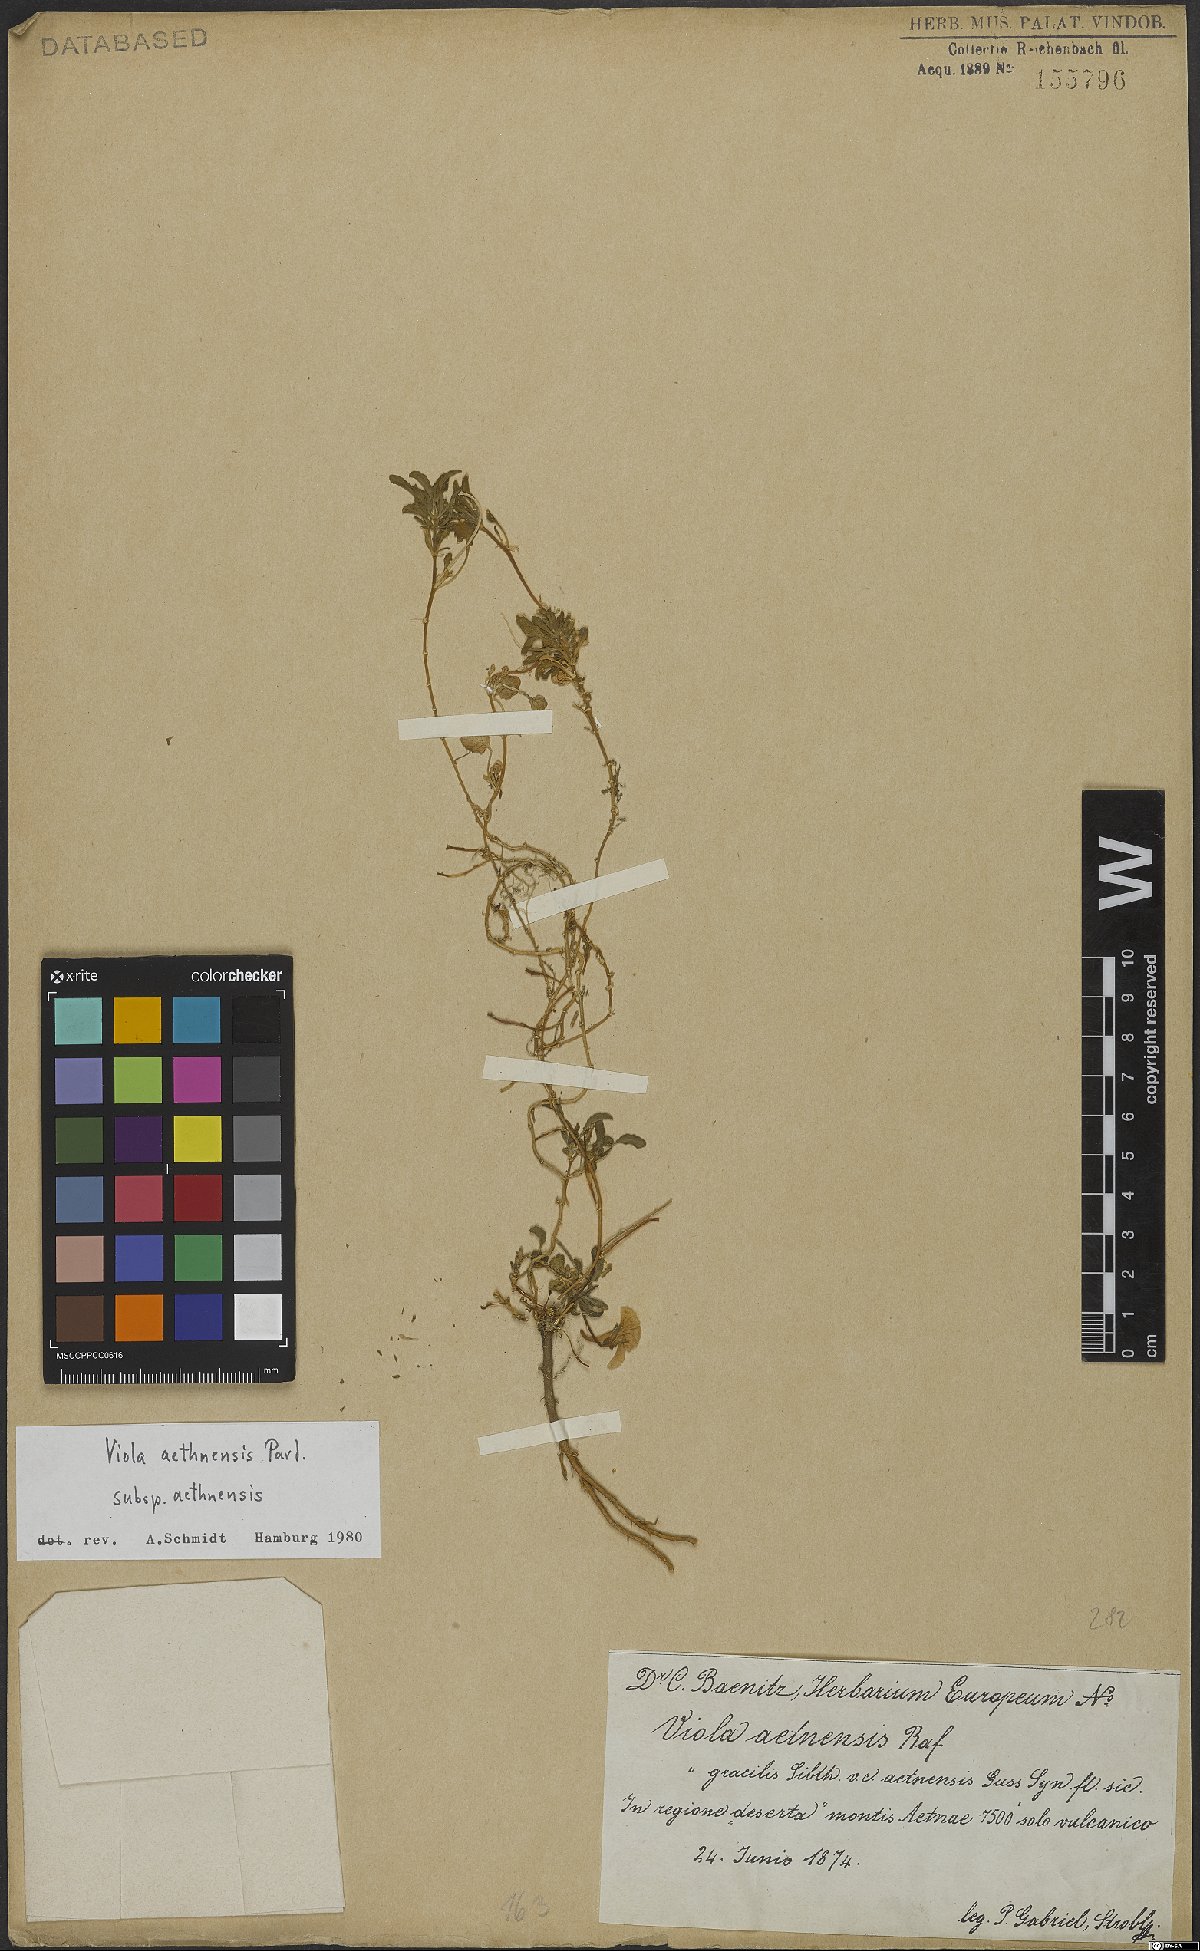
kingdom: Plantae
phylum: Tracheophyta
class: Magnoliopsida
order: Malpighiales
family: Violaceae
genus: Viola
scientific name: Viola aethnensis
